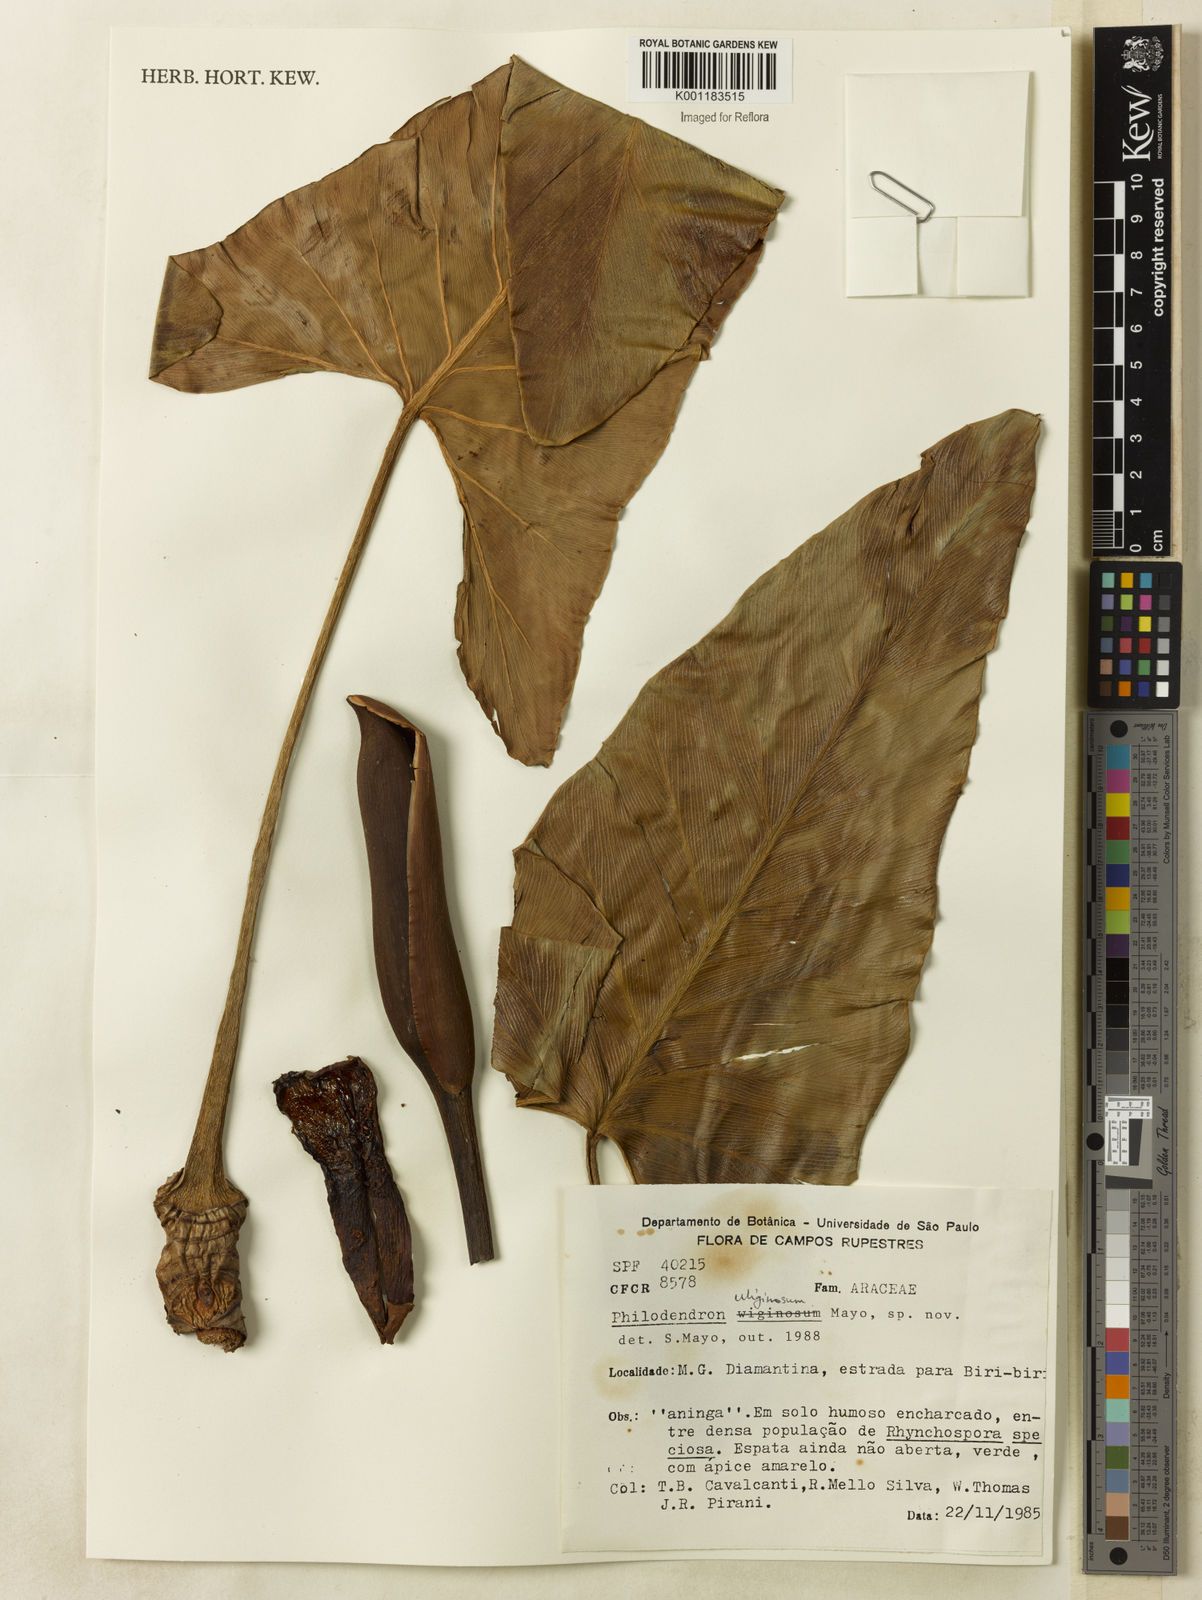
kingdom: Plantae
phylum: Tracheophyta
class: Liliopsida
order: Alismatales
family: Araceae
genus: Thaumatophyllum
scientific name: Thaumatophyllum uliginosum
